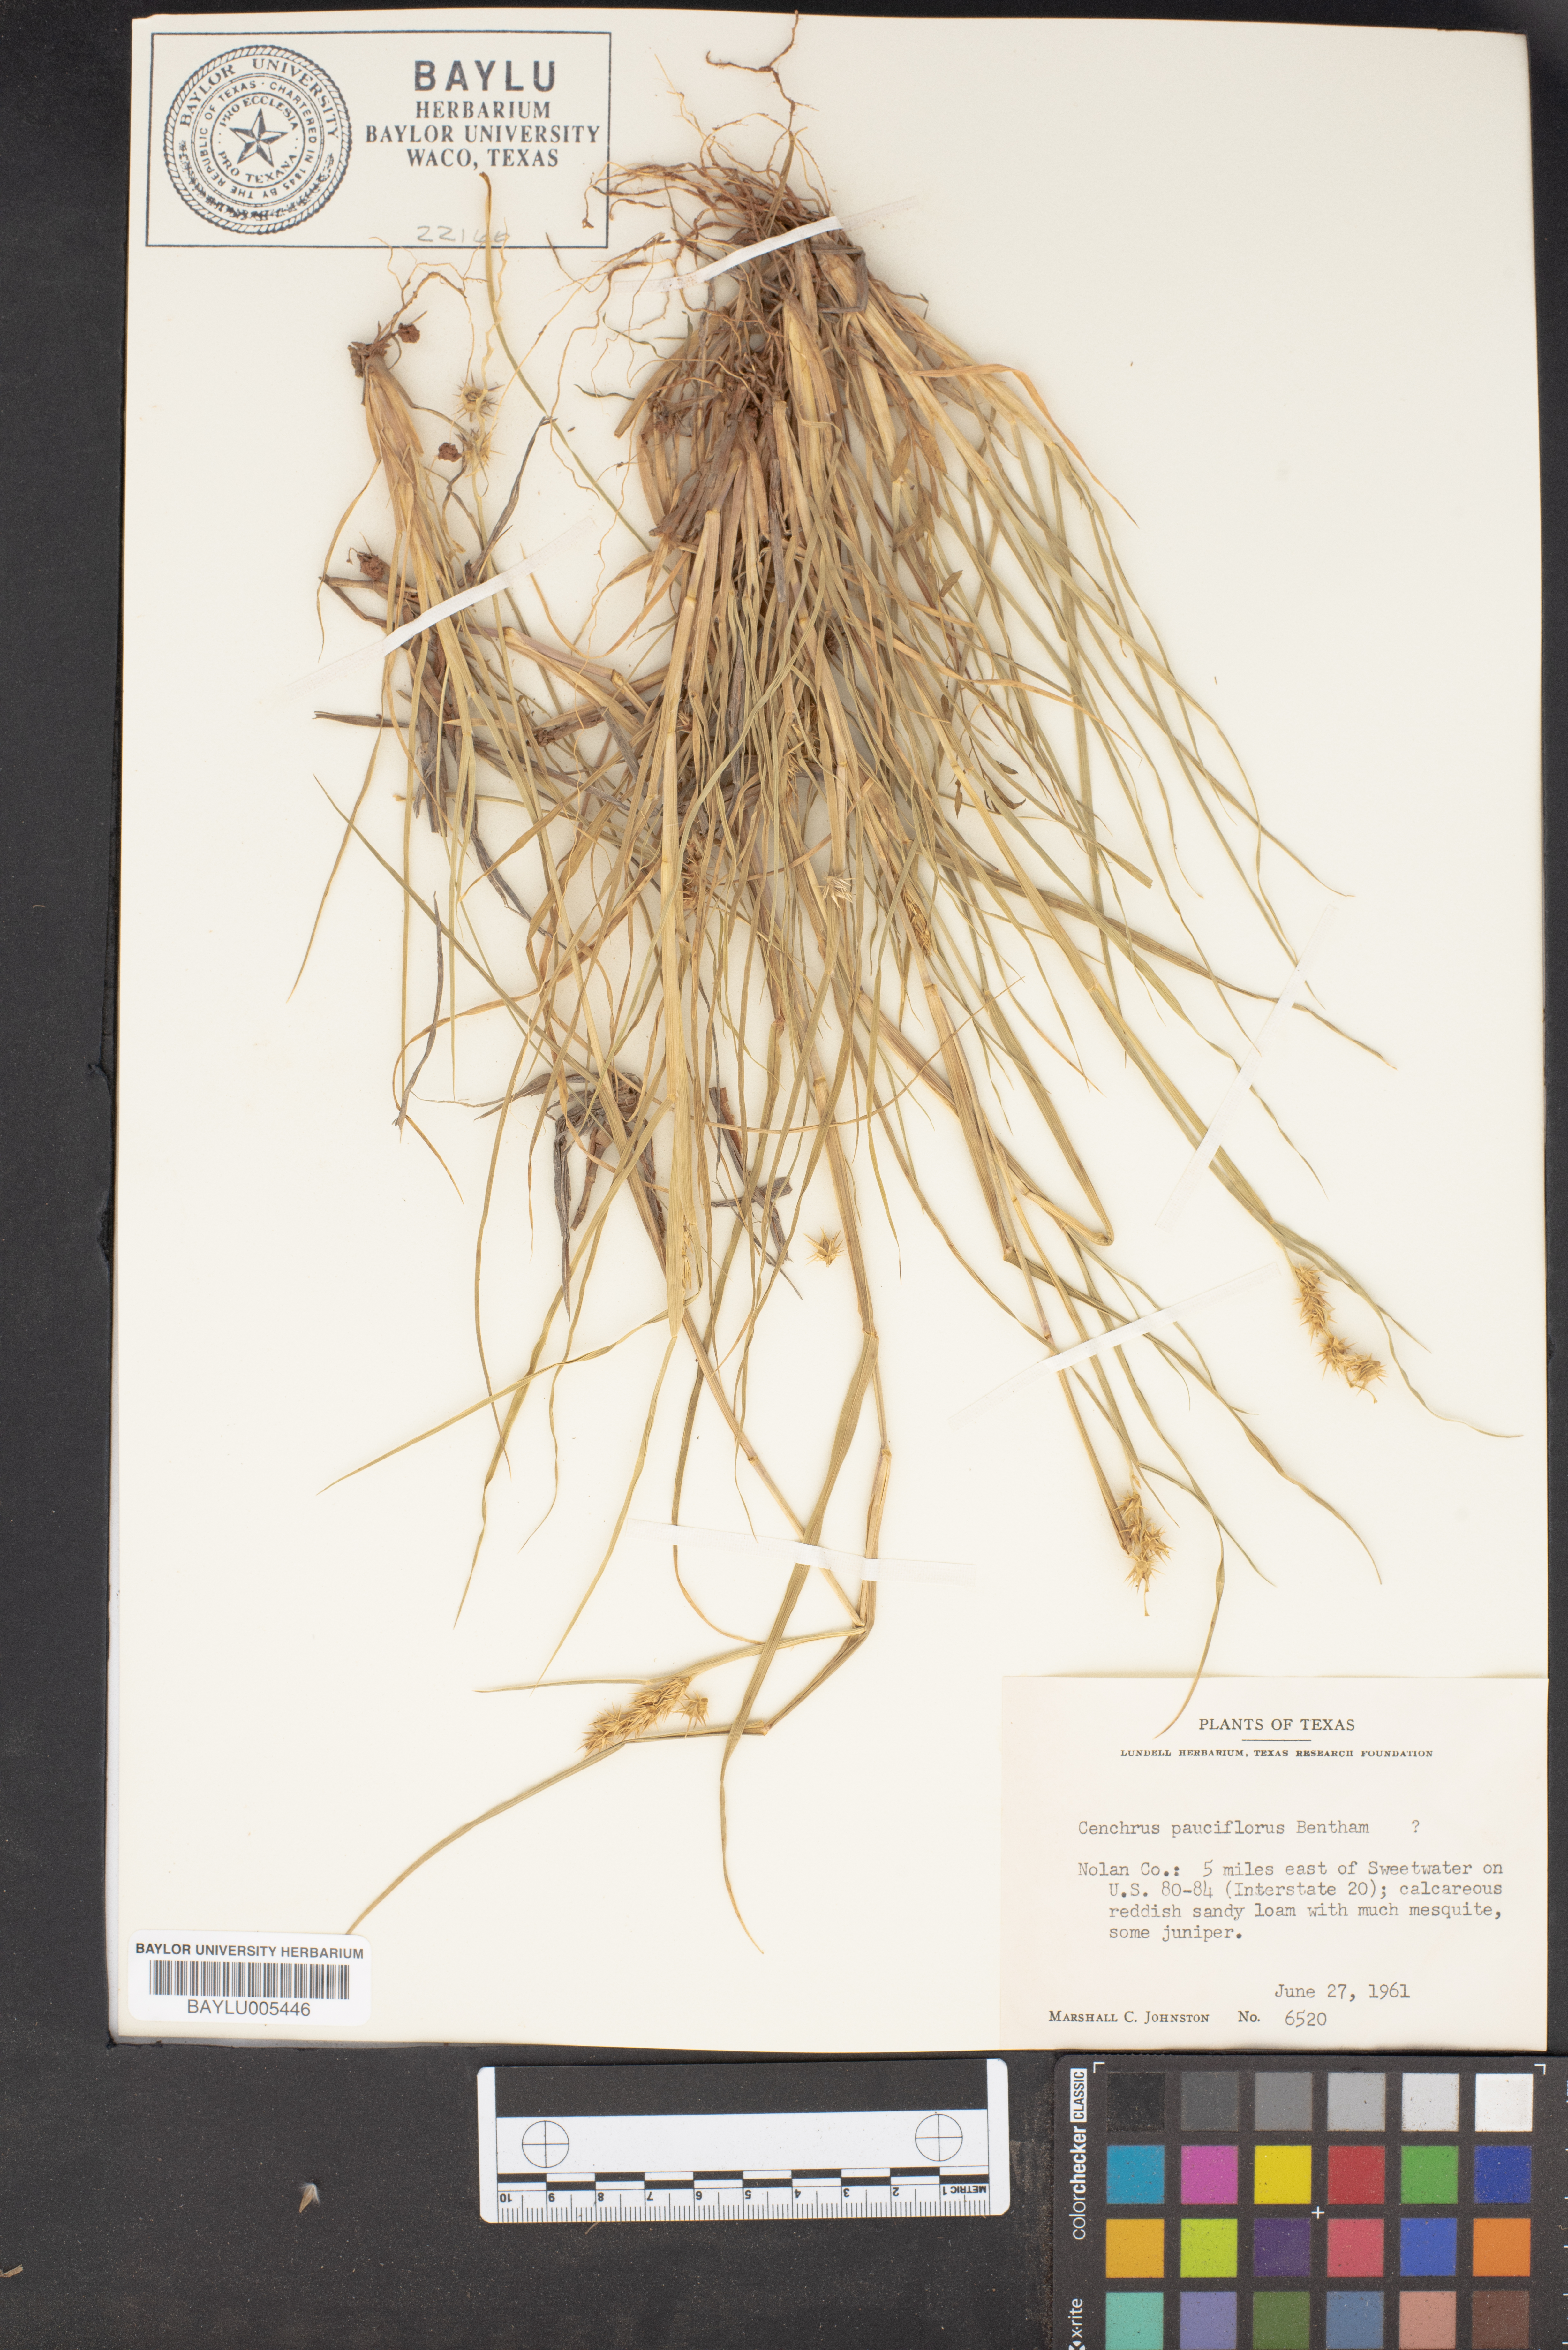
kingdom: Plantae
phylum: Tracheophyta
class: Liliopsida
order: Poales
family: Poaceae
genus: Cenchrus
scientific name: Cenchrus spinifex
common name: Coast sandbur
